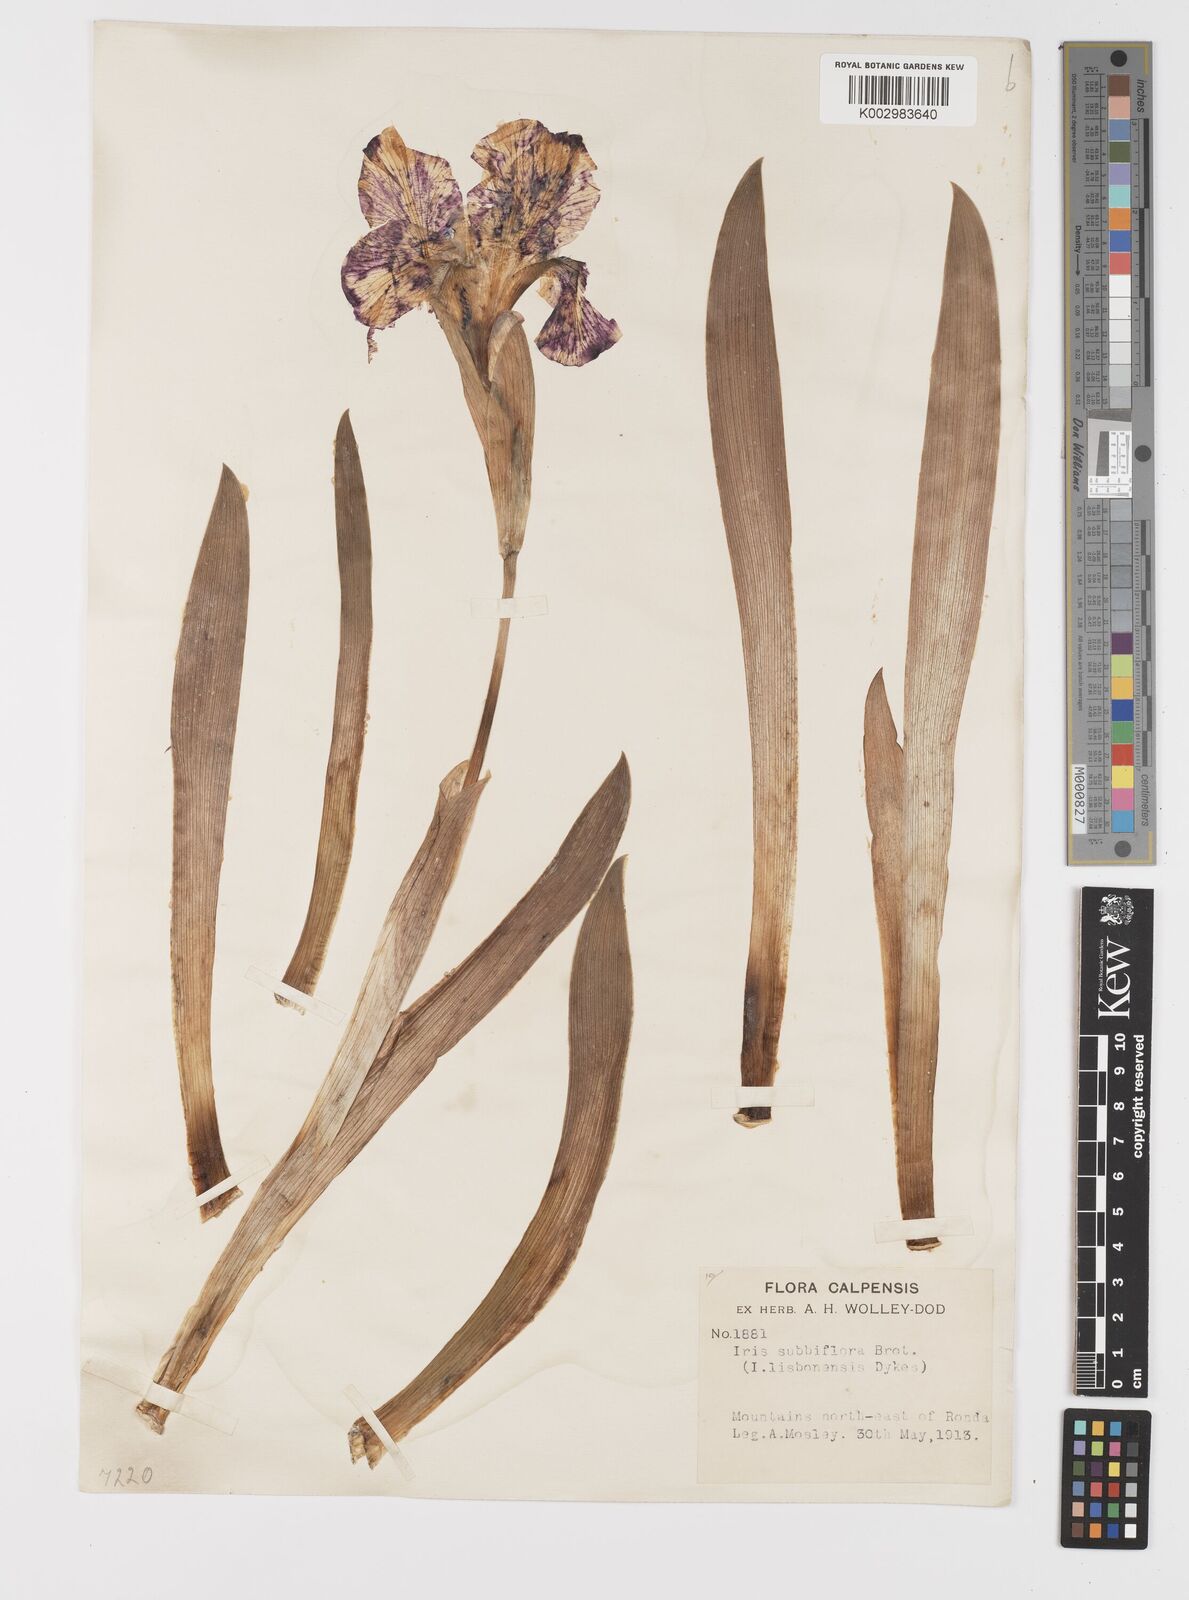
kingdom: Plantae
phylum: Tracheophyta
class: Liliopsida
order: Asparagales
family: Iridaceae
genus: Iris
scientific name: Iris lutescens
